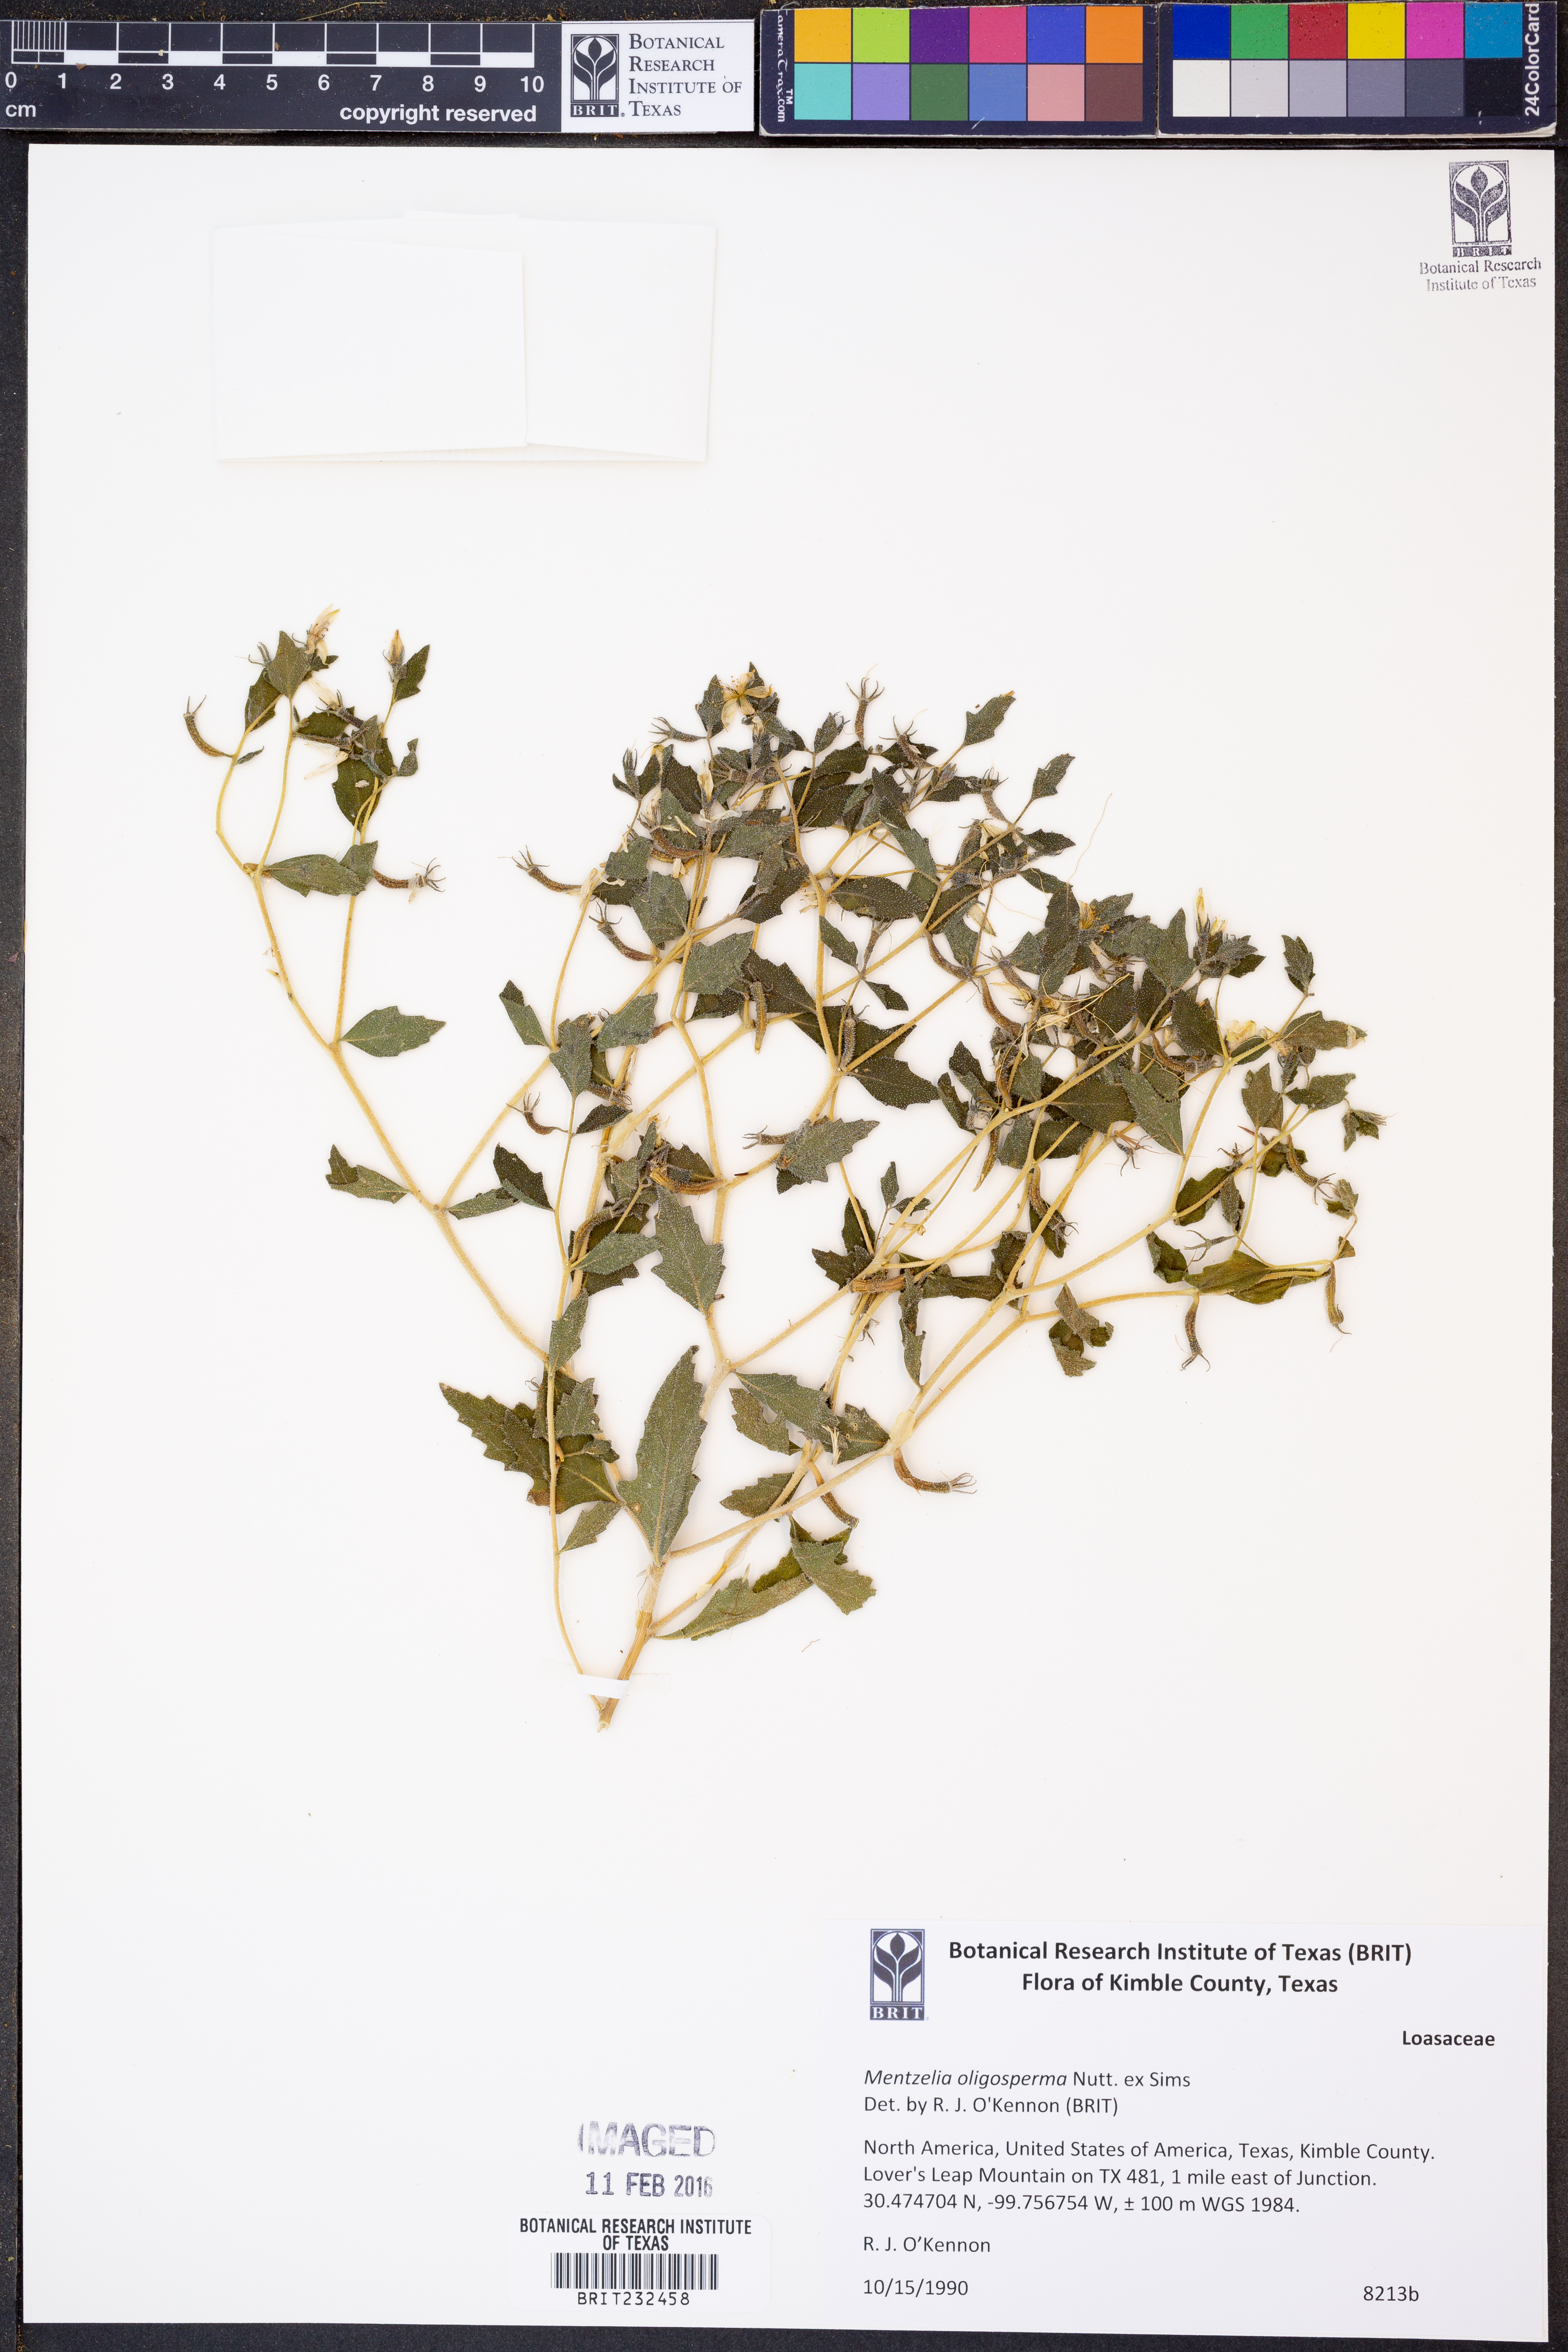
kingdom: Plantae
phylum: Tracheophyta
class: Magnoliopsida
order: Cornales
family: Loasaceae
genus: Mentzelia
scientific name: Mentzelia oligosperma
